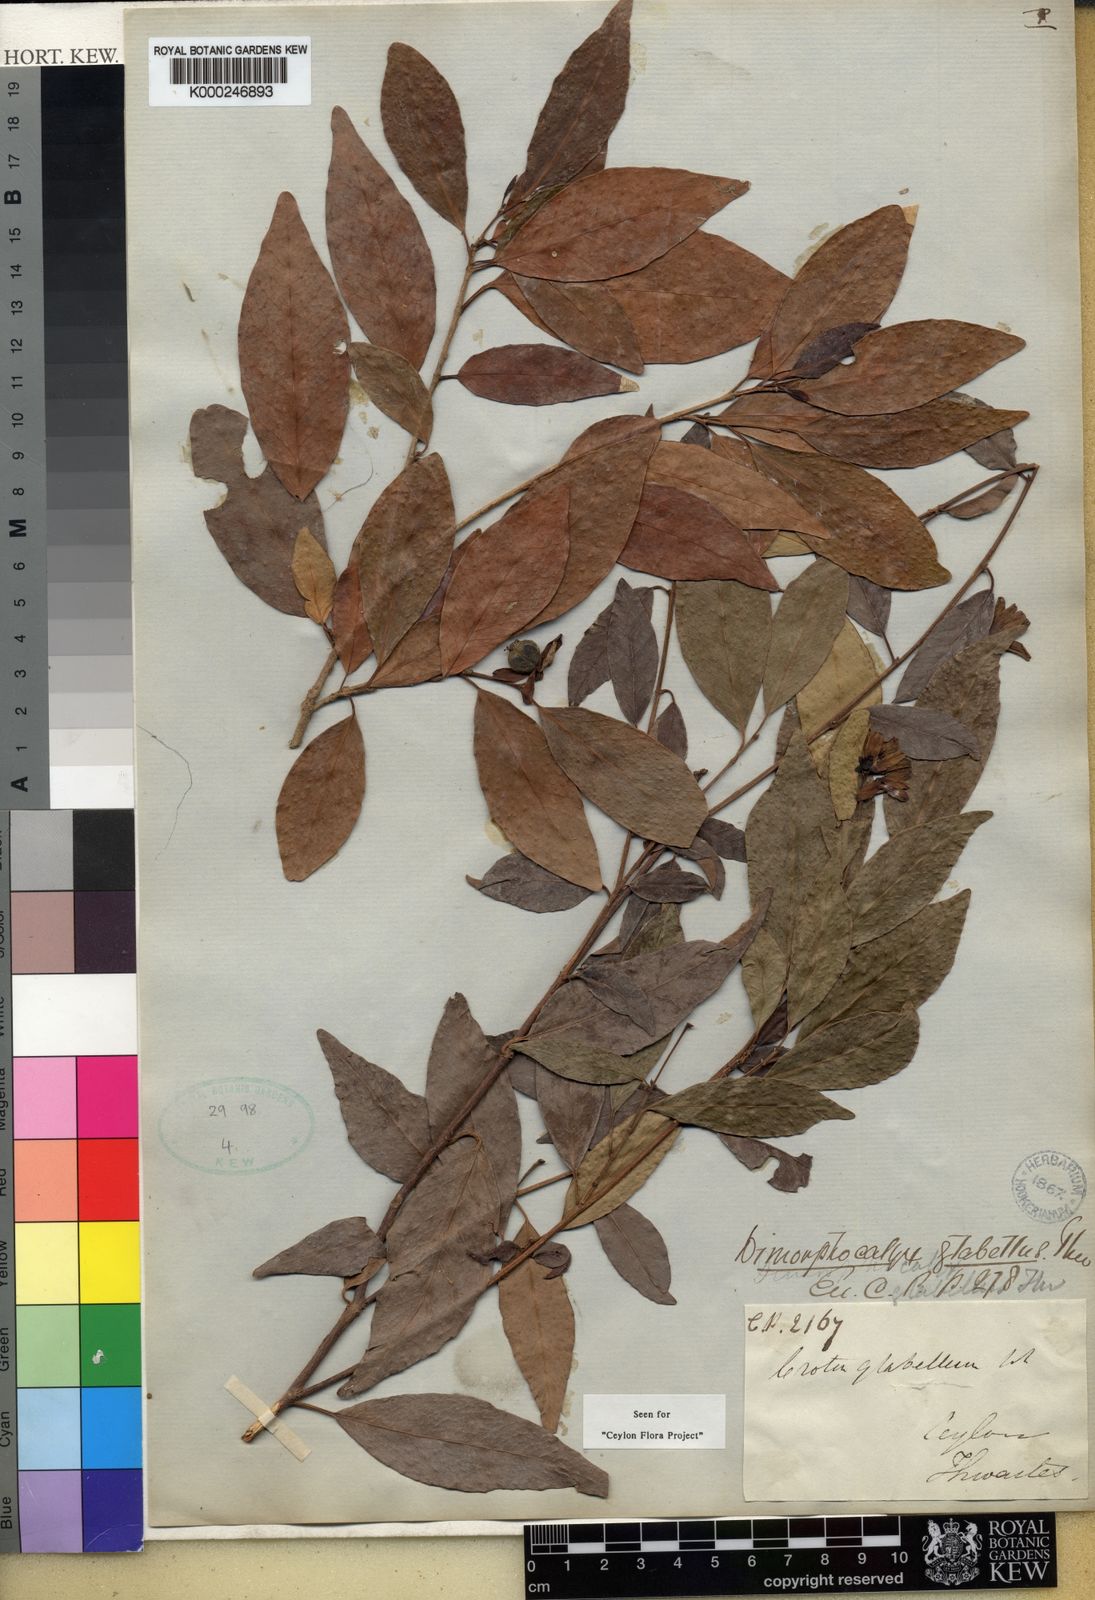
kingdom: Plantae
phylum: Tracheophyta
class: Magnoliopsida
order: Malpighiales
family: Euphorbiaceae
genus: Tritaxis
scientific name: Tritaxis glabella
